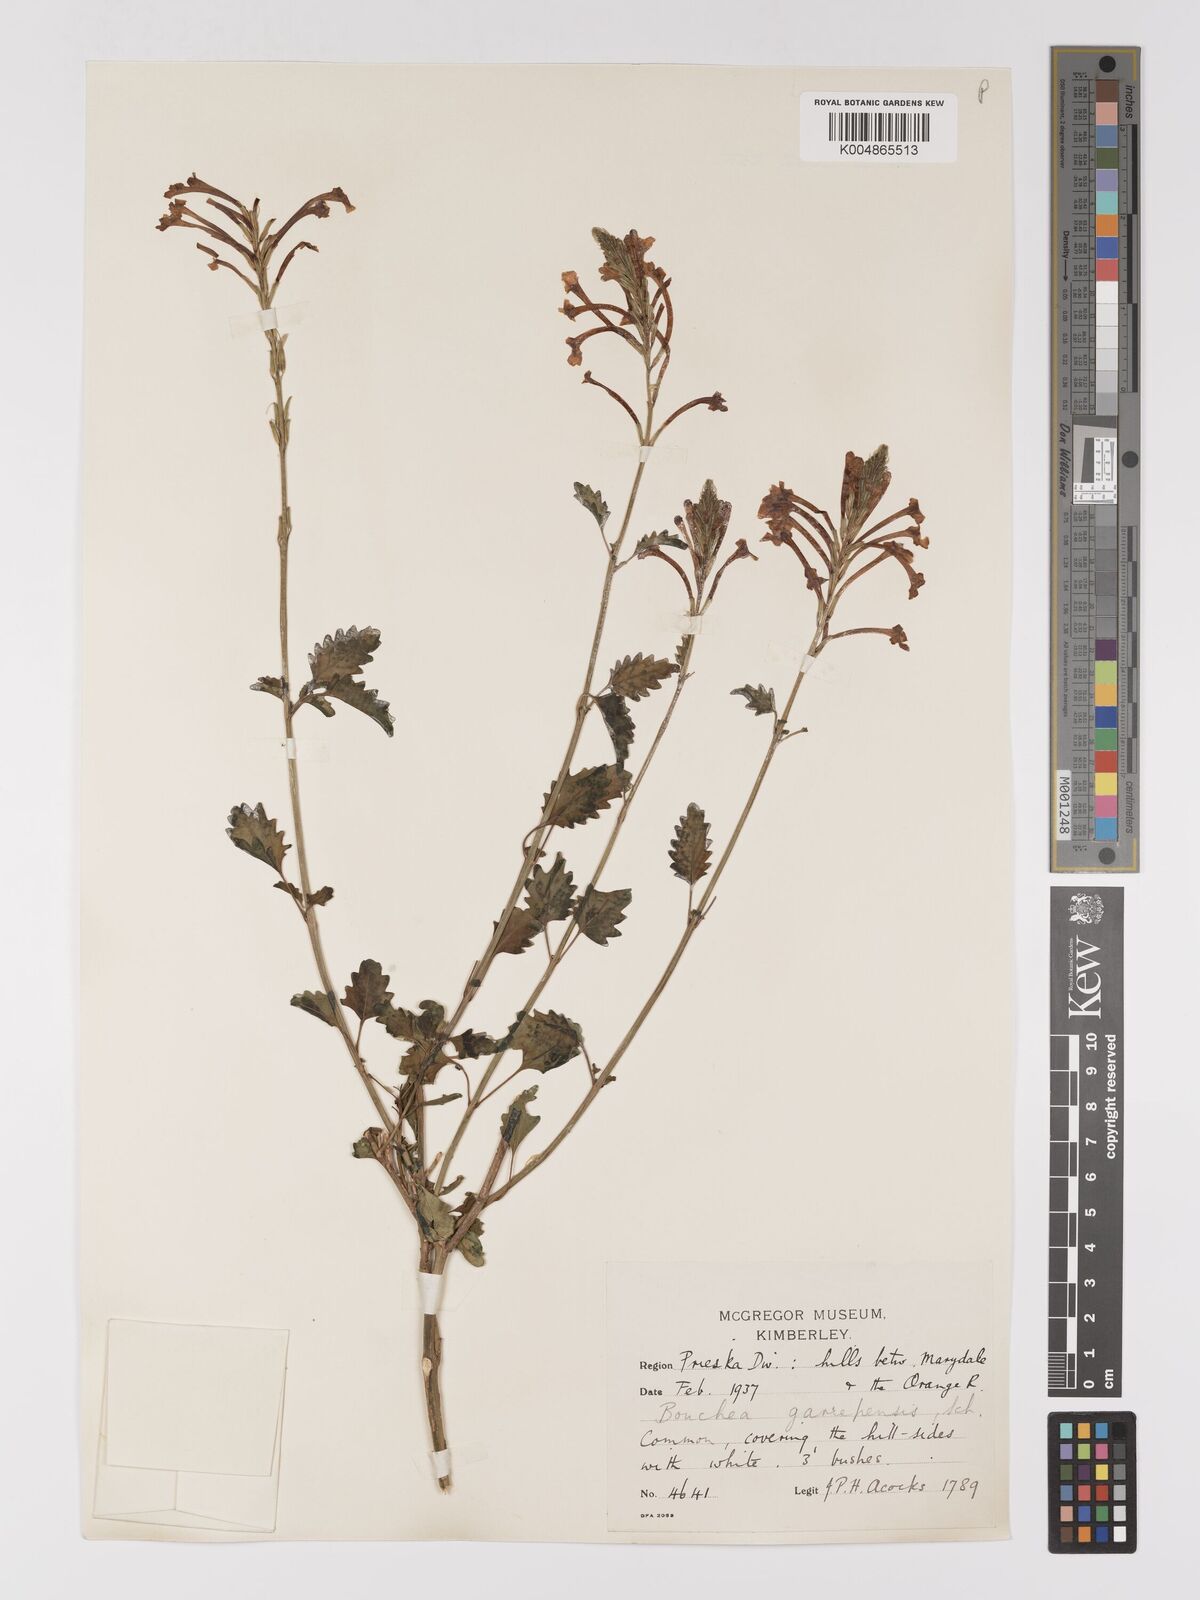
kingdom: Plantae
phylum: Tracheophyta
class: Magnoliopsida
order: Lamiales
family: Verbenaceae
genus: Chascanum
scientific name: Chascanum garipense
